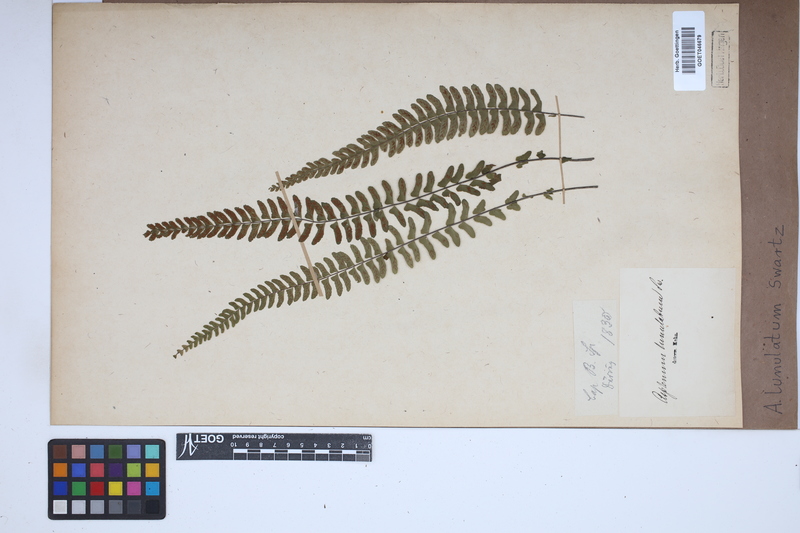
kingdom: Plantae
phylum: Tracheophyta
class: Polypodiopsida
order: Polypodiales
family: Aspleniaceae
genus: Asplenium
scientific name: Asplenium lunulatum
